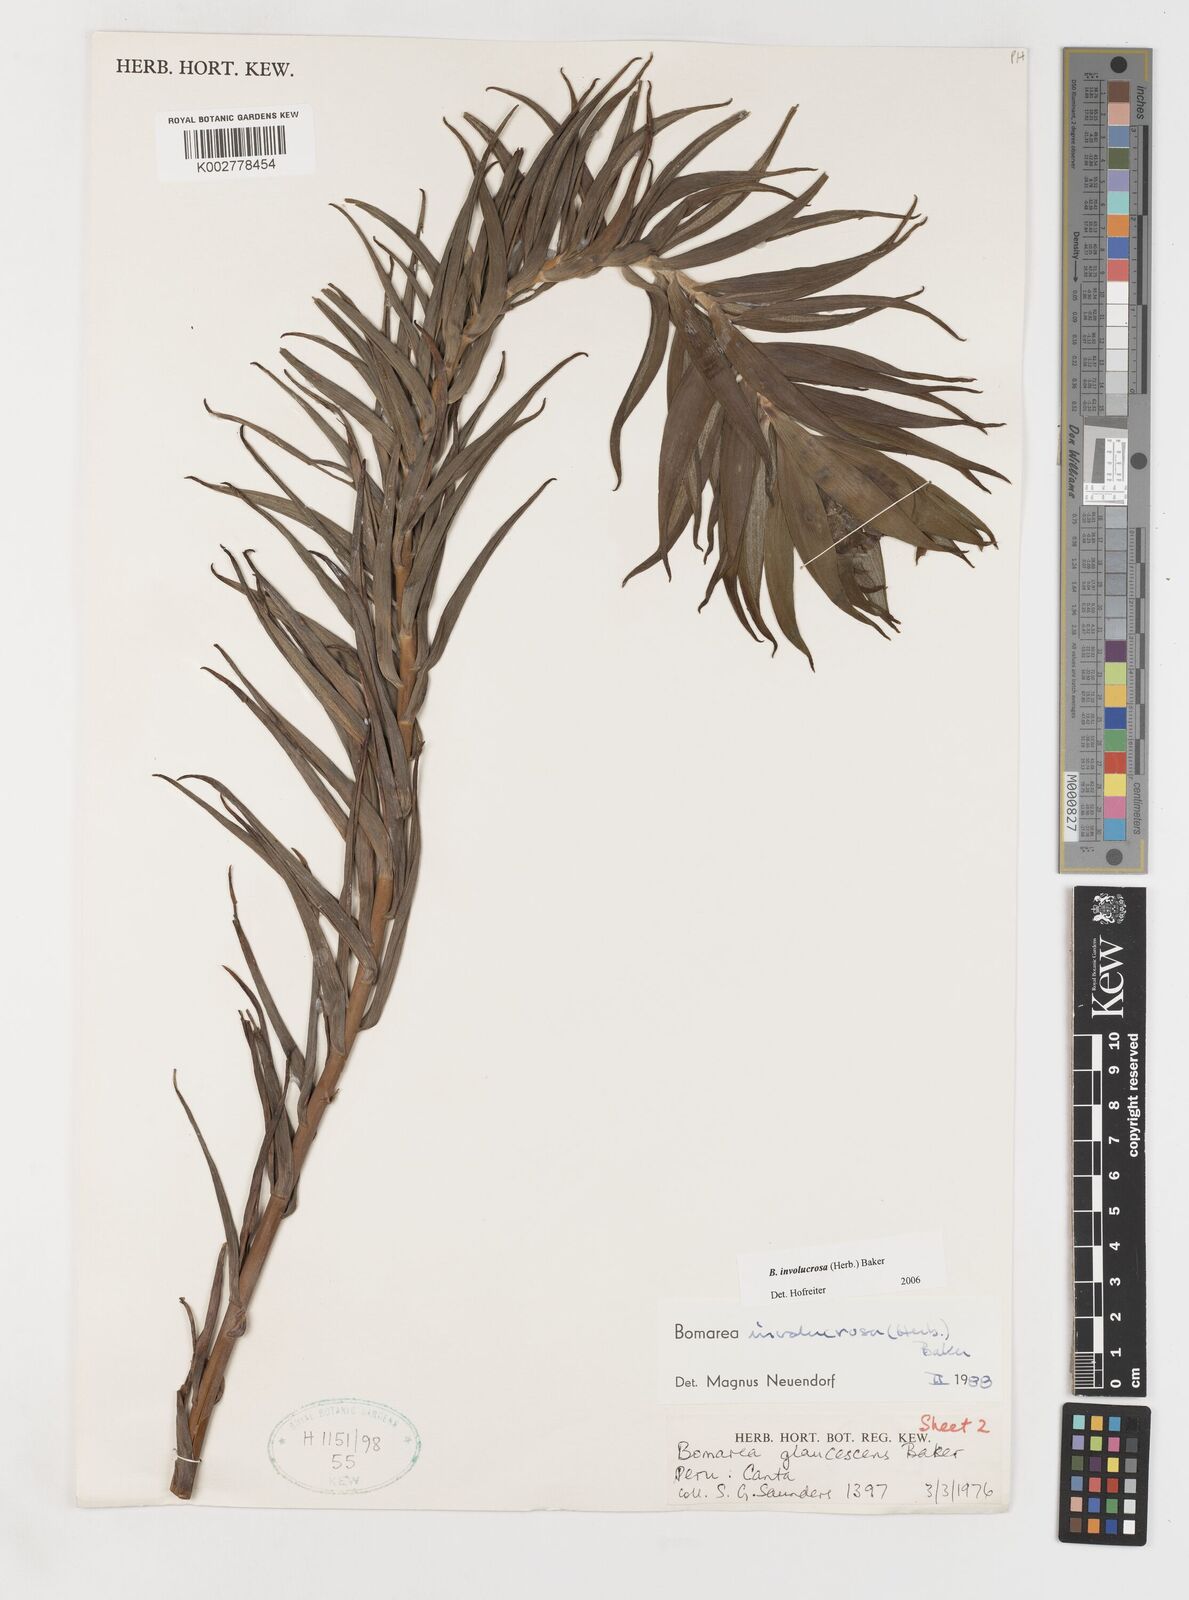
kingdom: Plantae
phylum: Tracheophyta
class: Liliopsida
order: Liliales
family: Alstroemeriaceae
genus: Bomarea
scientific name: Bomarea involucrosa
